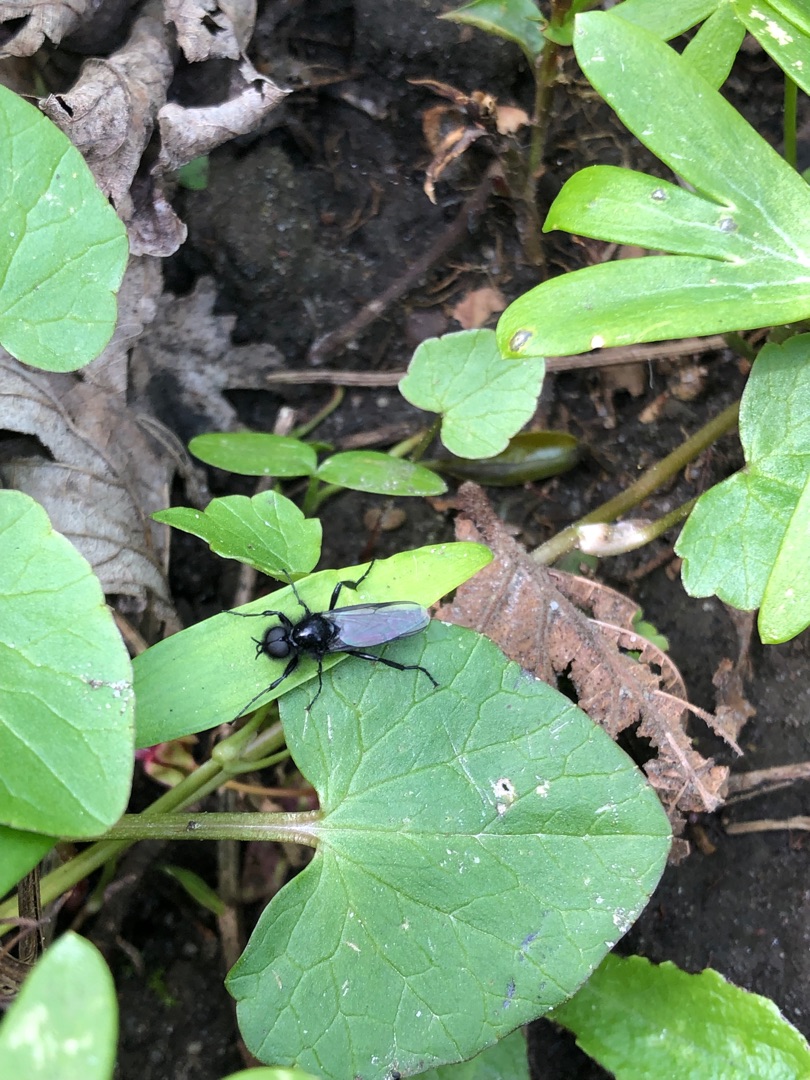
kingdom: Animalia
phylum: Arthropoda
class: Insecta
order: Diptera
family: Bibionidae
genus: Bibio
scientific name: Bibio marci
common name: Skovhårmyg
